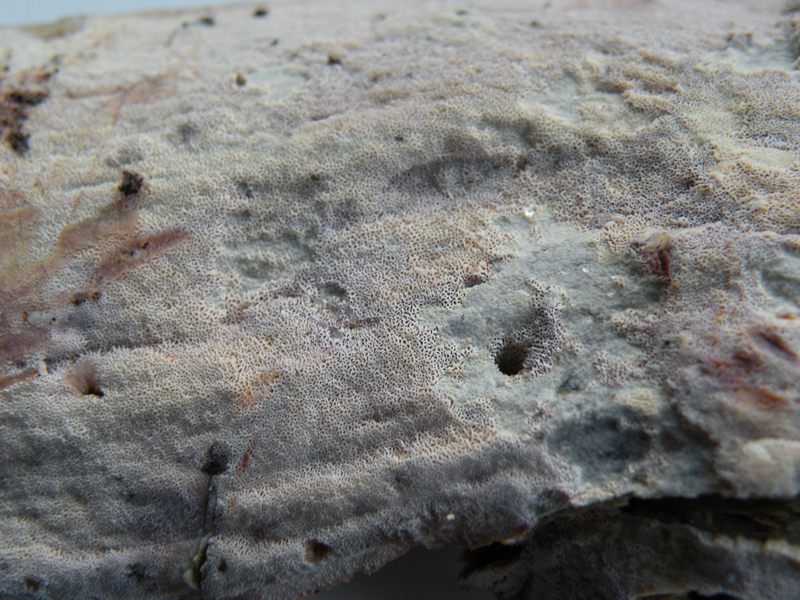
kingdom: Fungi
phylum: Basidiomycota
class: Agaricomycetes
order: Polyporales
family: Irpicaceae
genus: Ceriporia
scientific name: Ceriporia viridans
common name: foranderlig voksporesvamp
